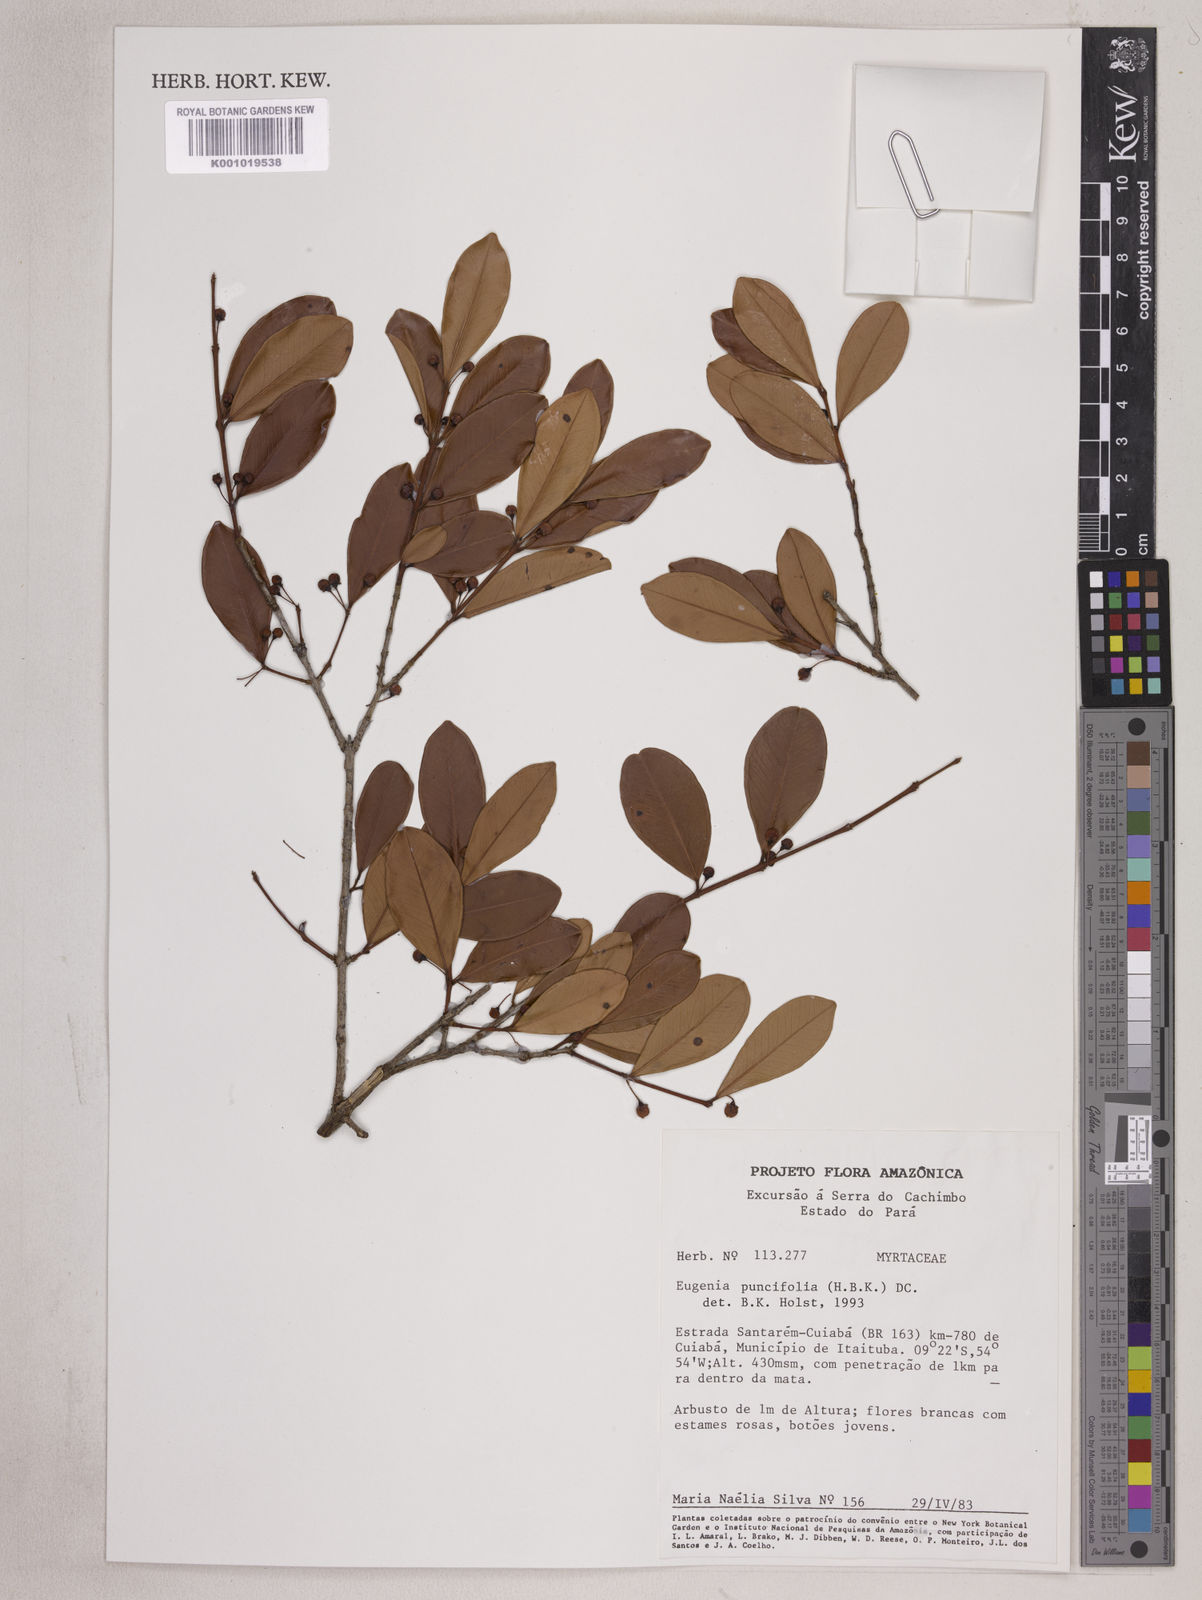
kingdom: Plantae
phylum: Tracheophyta
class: Magnoliopsida
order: Myrtales
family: Myrtaceae
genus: Eugenia
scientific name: Eugenia punicifolia
